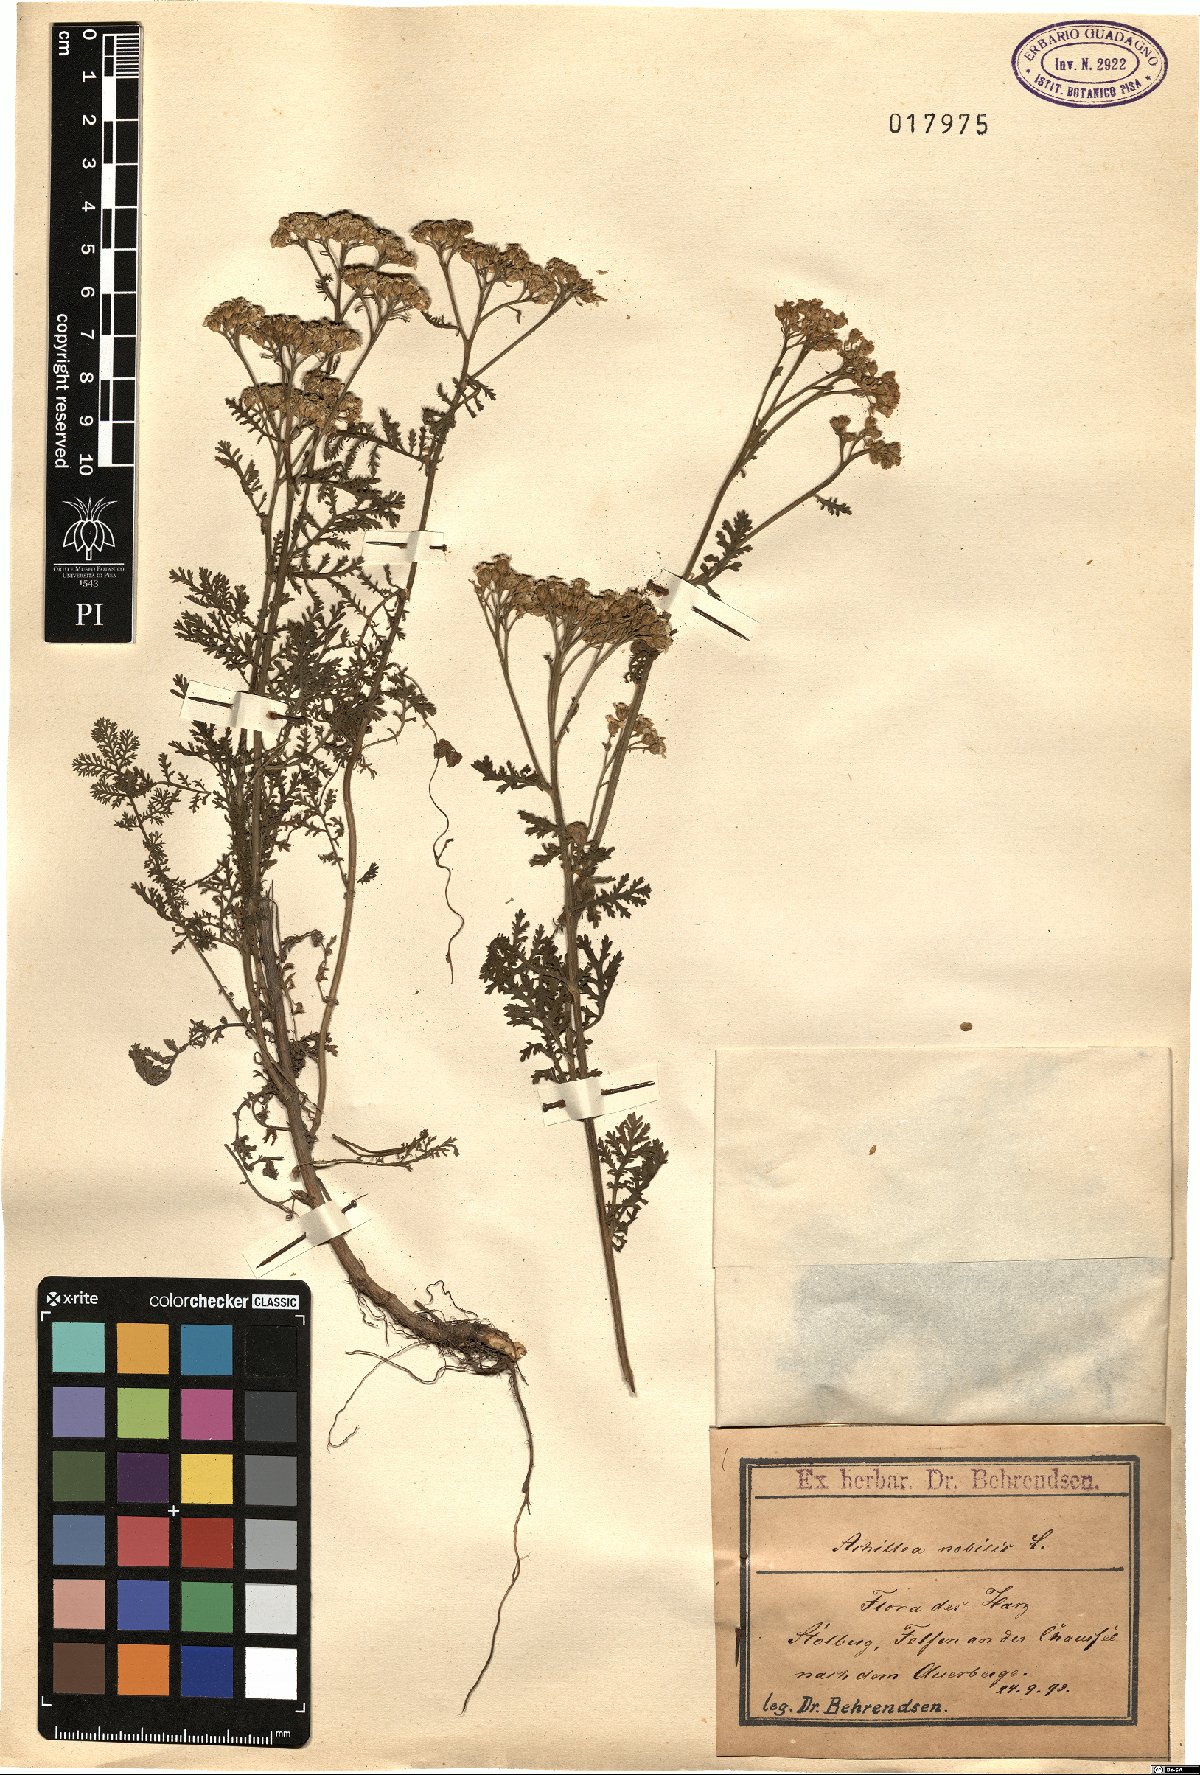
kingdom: Plantae
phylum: Tracheophyta
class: Magnoliopsida
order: Asterales
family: Asteraceae
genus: Achillea
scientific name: Achillea nobilis
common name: Noble yarrow
